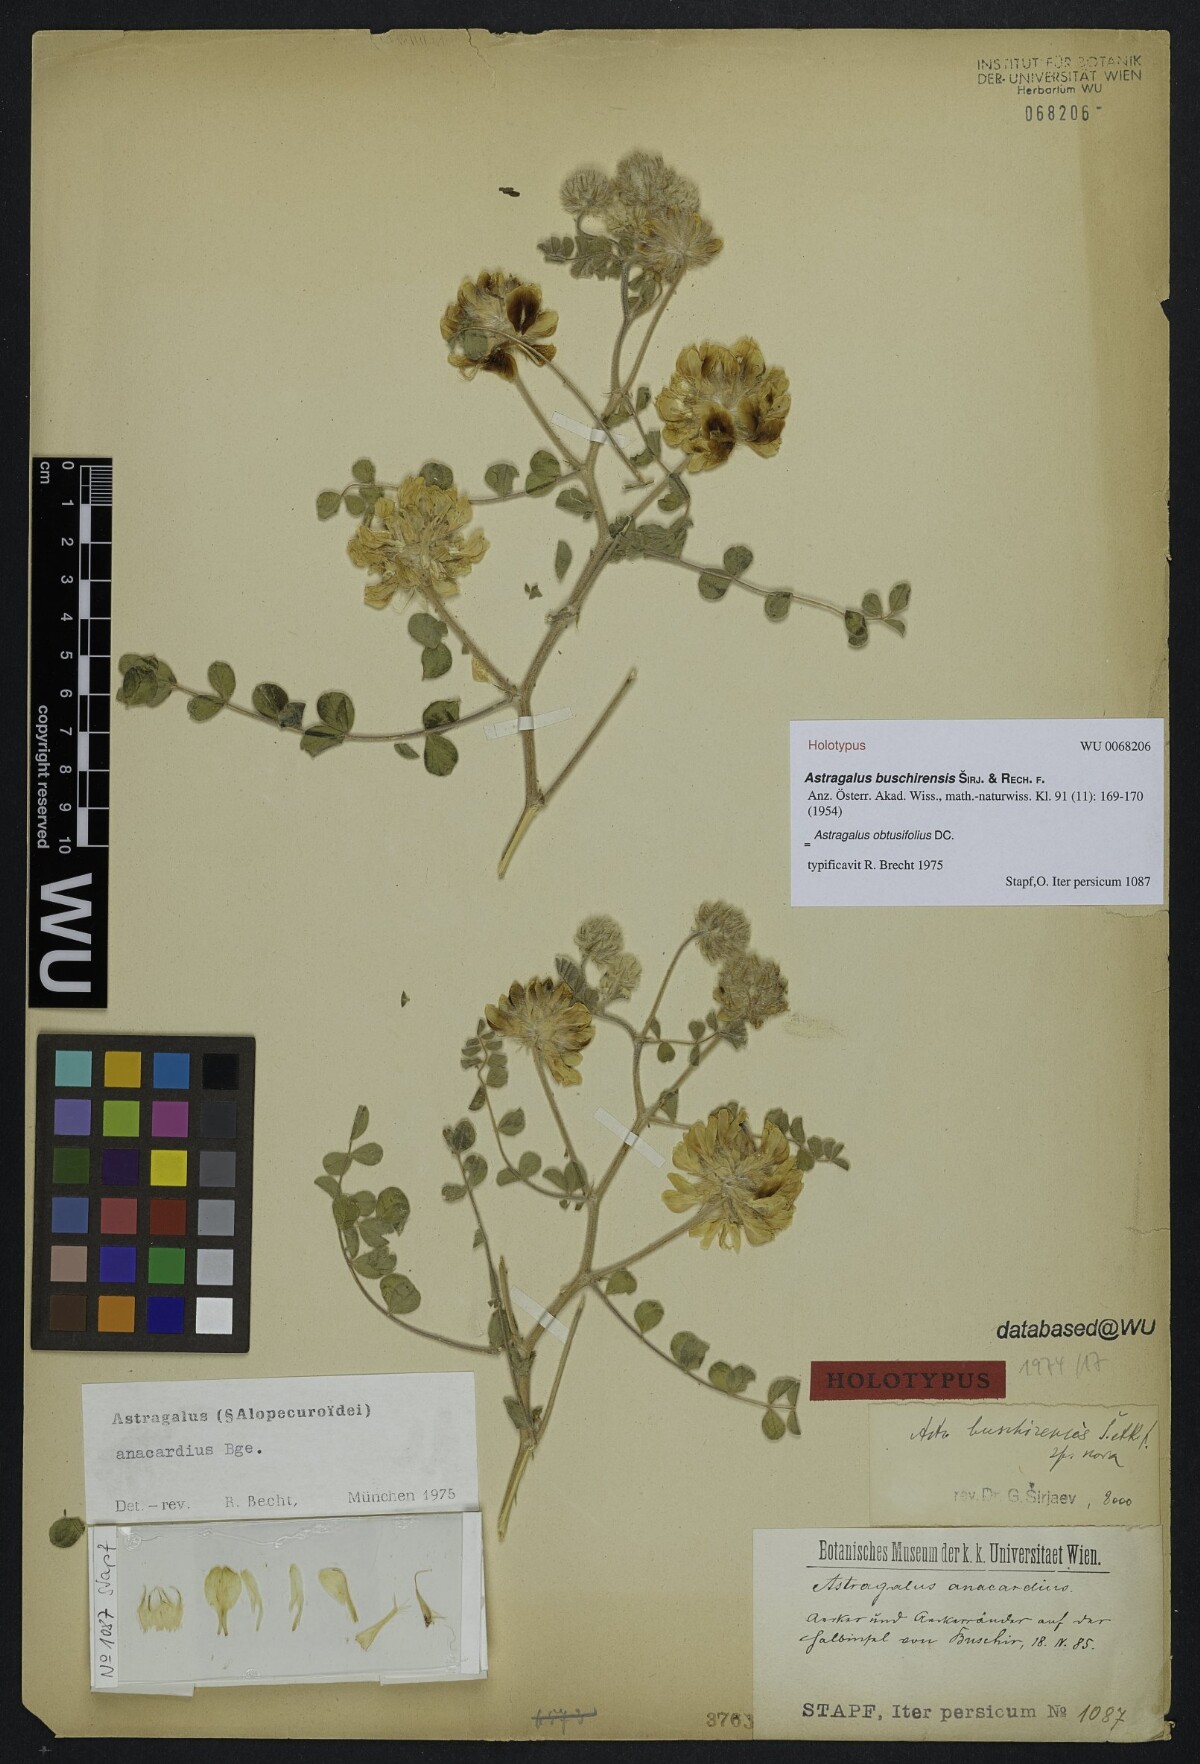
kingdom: Plantae
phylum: Tracheophyta
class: Magnoliopsida
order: Fabales
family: Fabaceae
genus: Astragalus
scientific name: Astragalus obtusifolius
